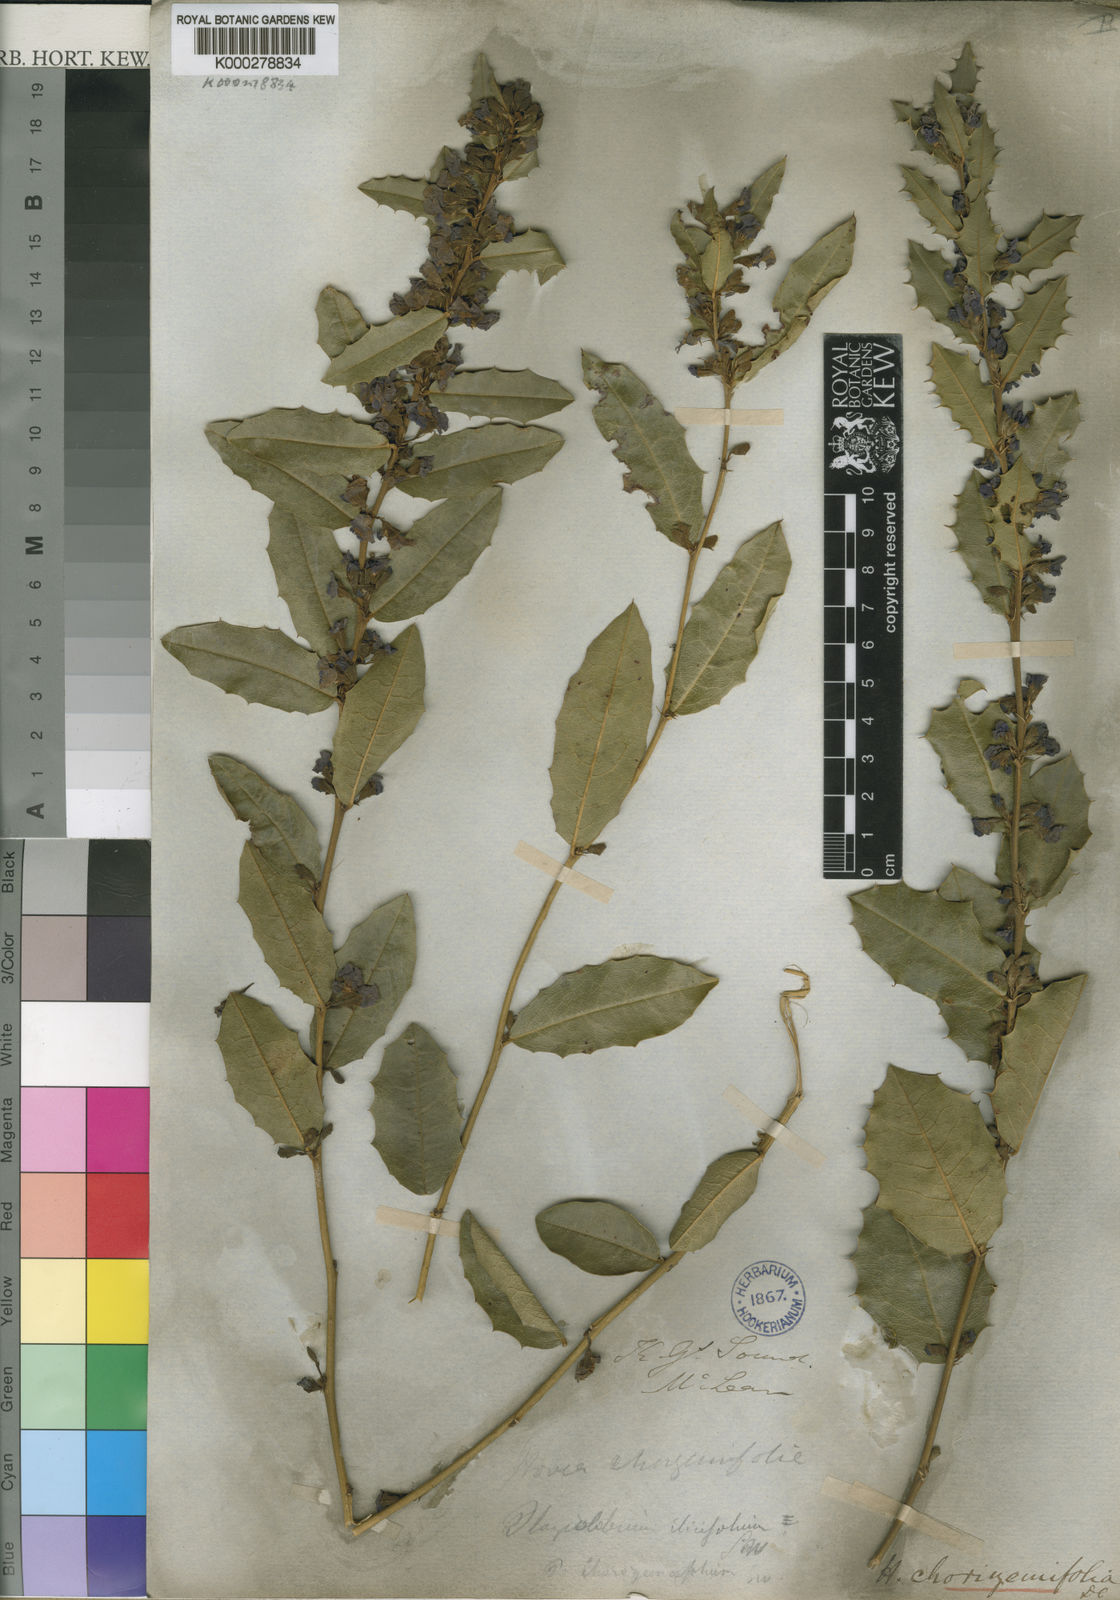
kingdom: Plantae
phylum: Tracheophyta
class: Magnoliopsida
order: Fabales
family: Fabaceae
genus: Hovea
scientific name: Hovea chorizemifolia
